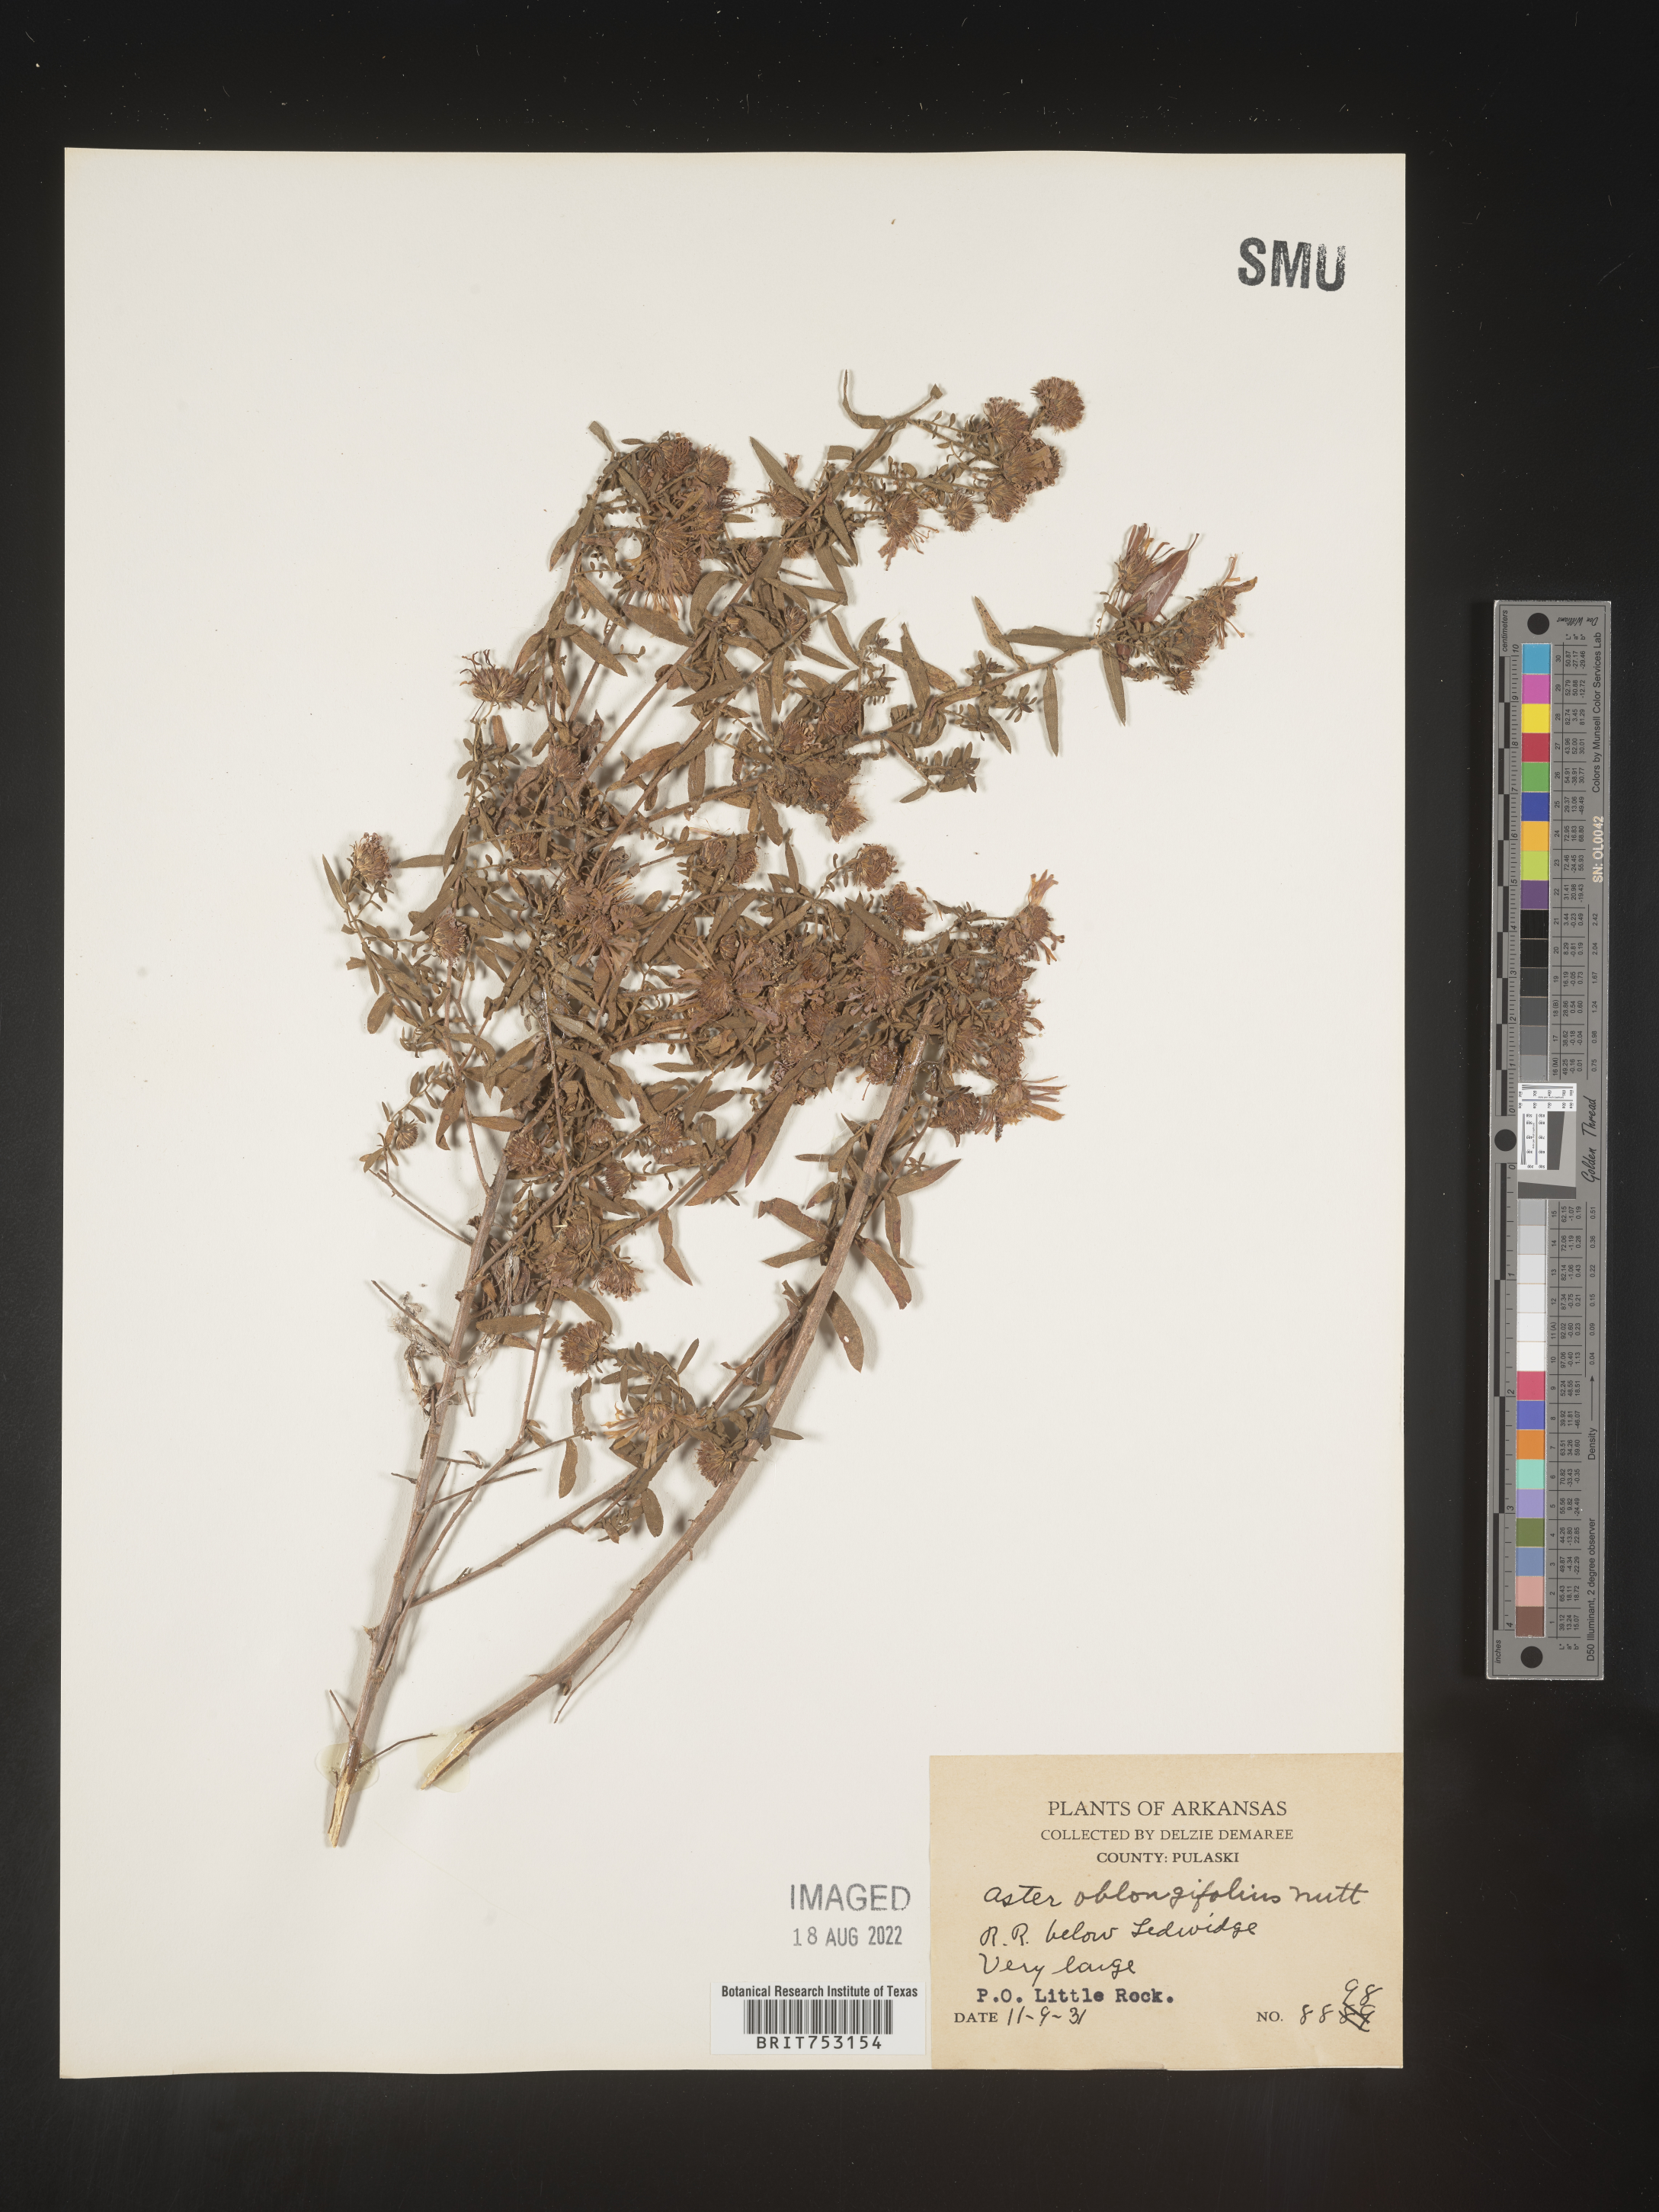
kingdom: Plantae
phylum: Tracheophyta
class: Magnoliopsida
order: Asterales
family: Asteraceae
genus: Symphyotrichum
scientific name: Symphyotrichum oblongifolium
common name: Aromatic aster
